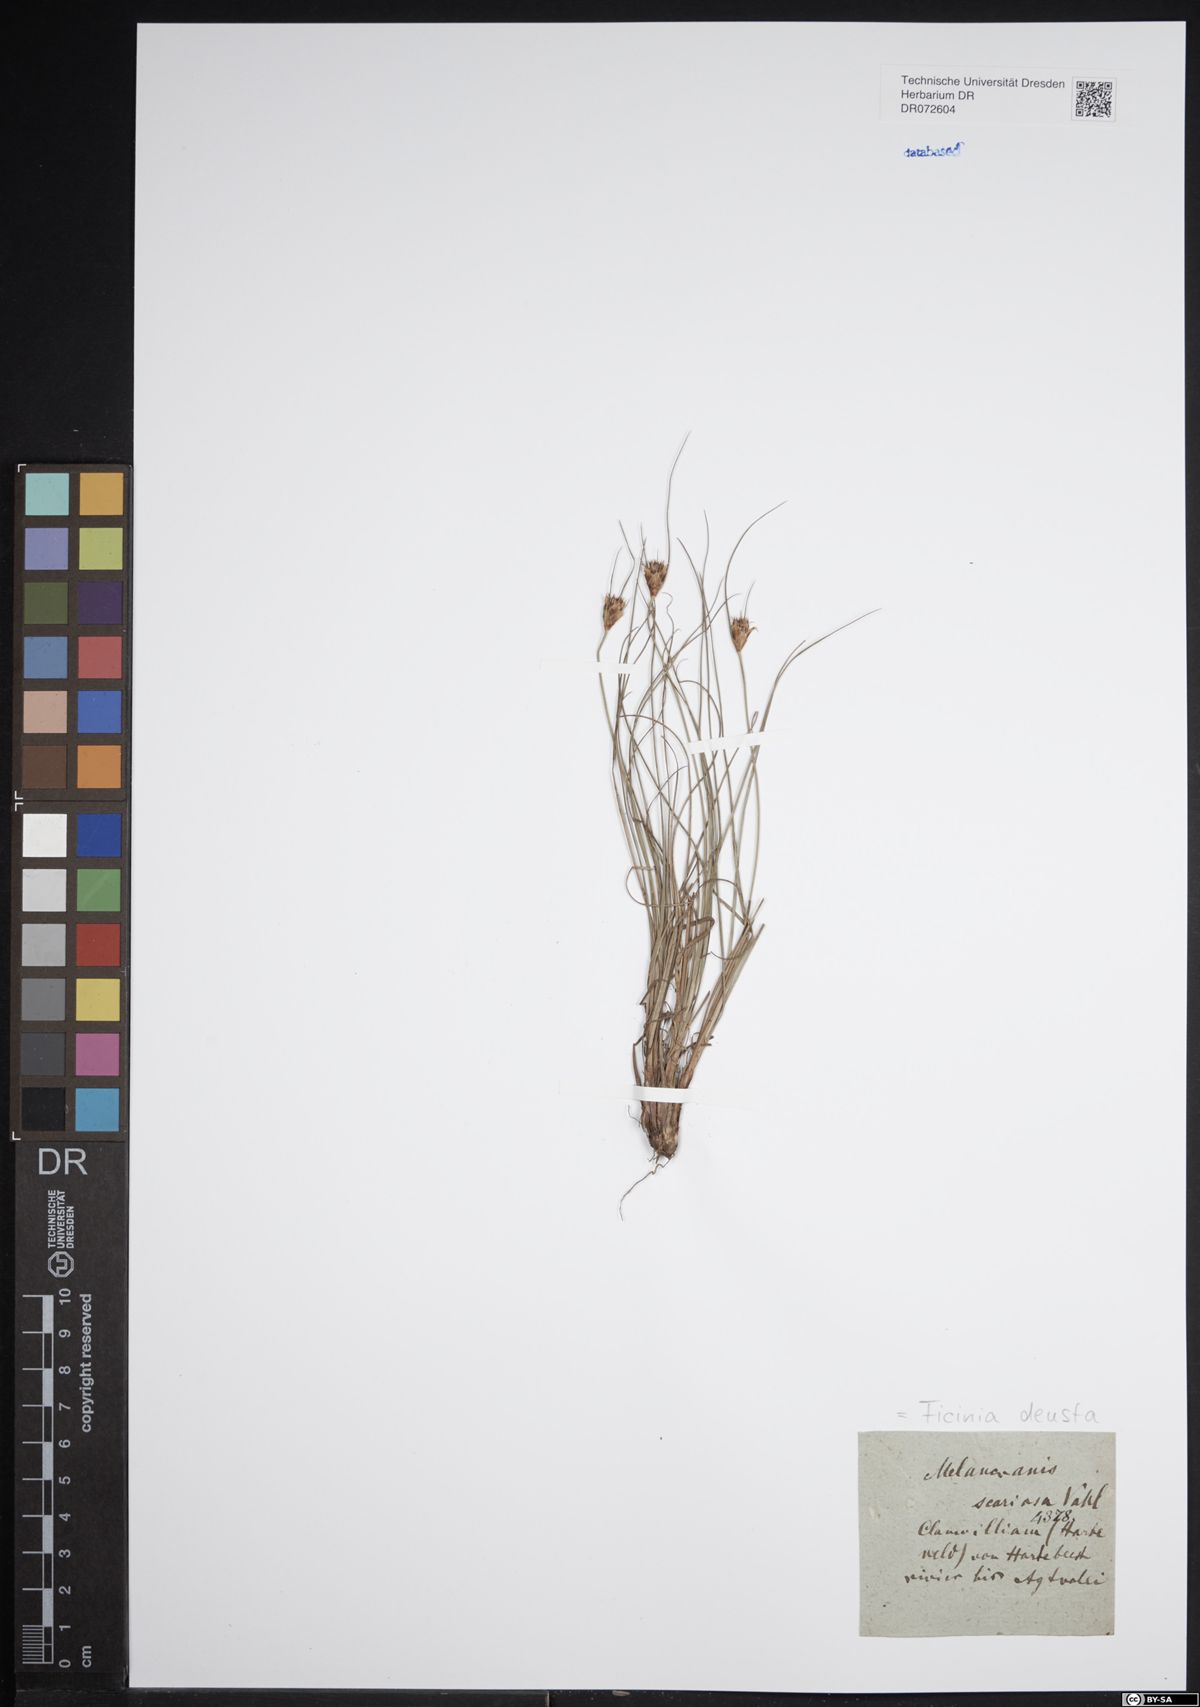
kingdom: Plantae
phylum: Tracheophyta
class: Liliopsida
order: Poales
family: Cyperaceae
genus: Ficinia
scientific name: Ficinia deusta
